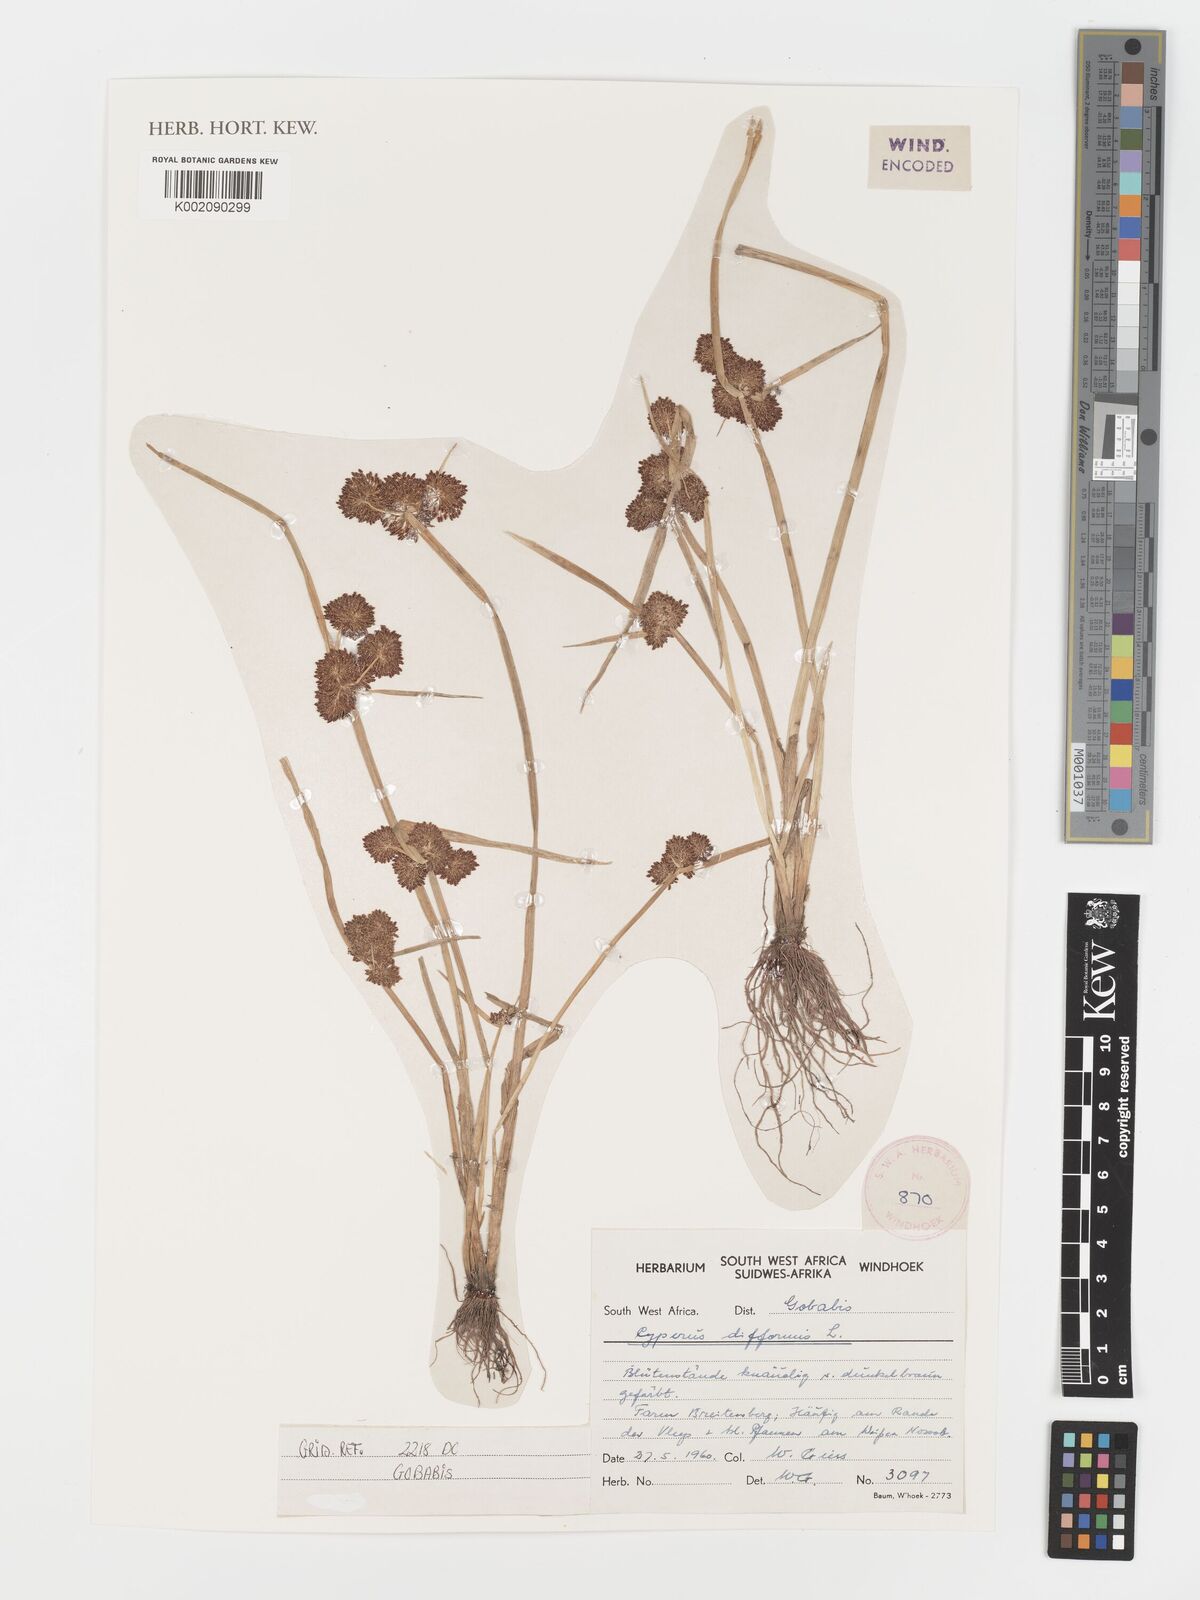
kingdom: Plantae
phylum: Tracheophyta
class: Liliopsida
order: Poales
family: Cyperaceae
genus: Cyperus
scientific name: Cyperus difformis
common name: Variable flatsedge
